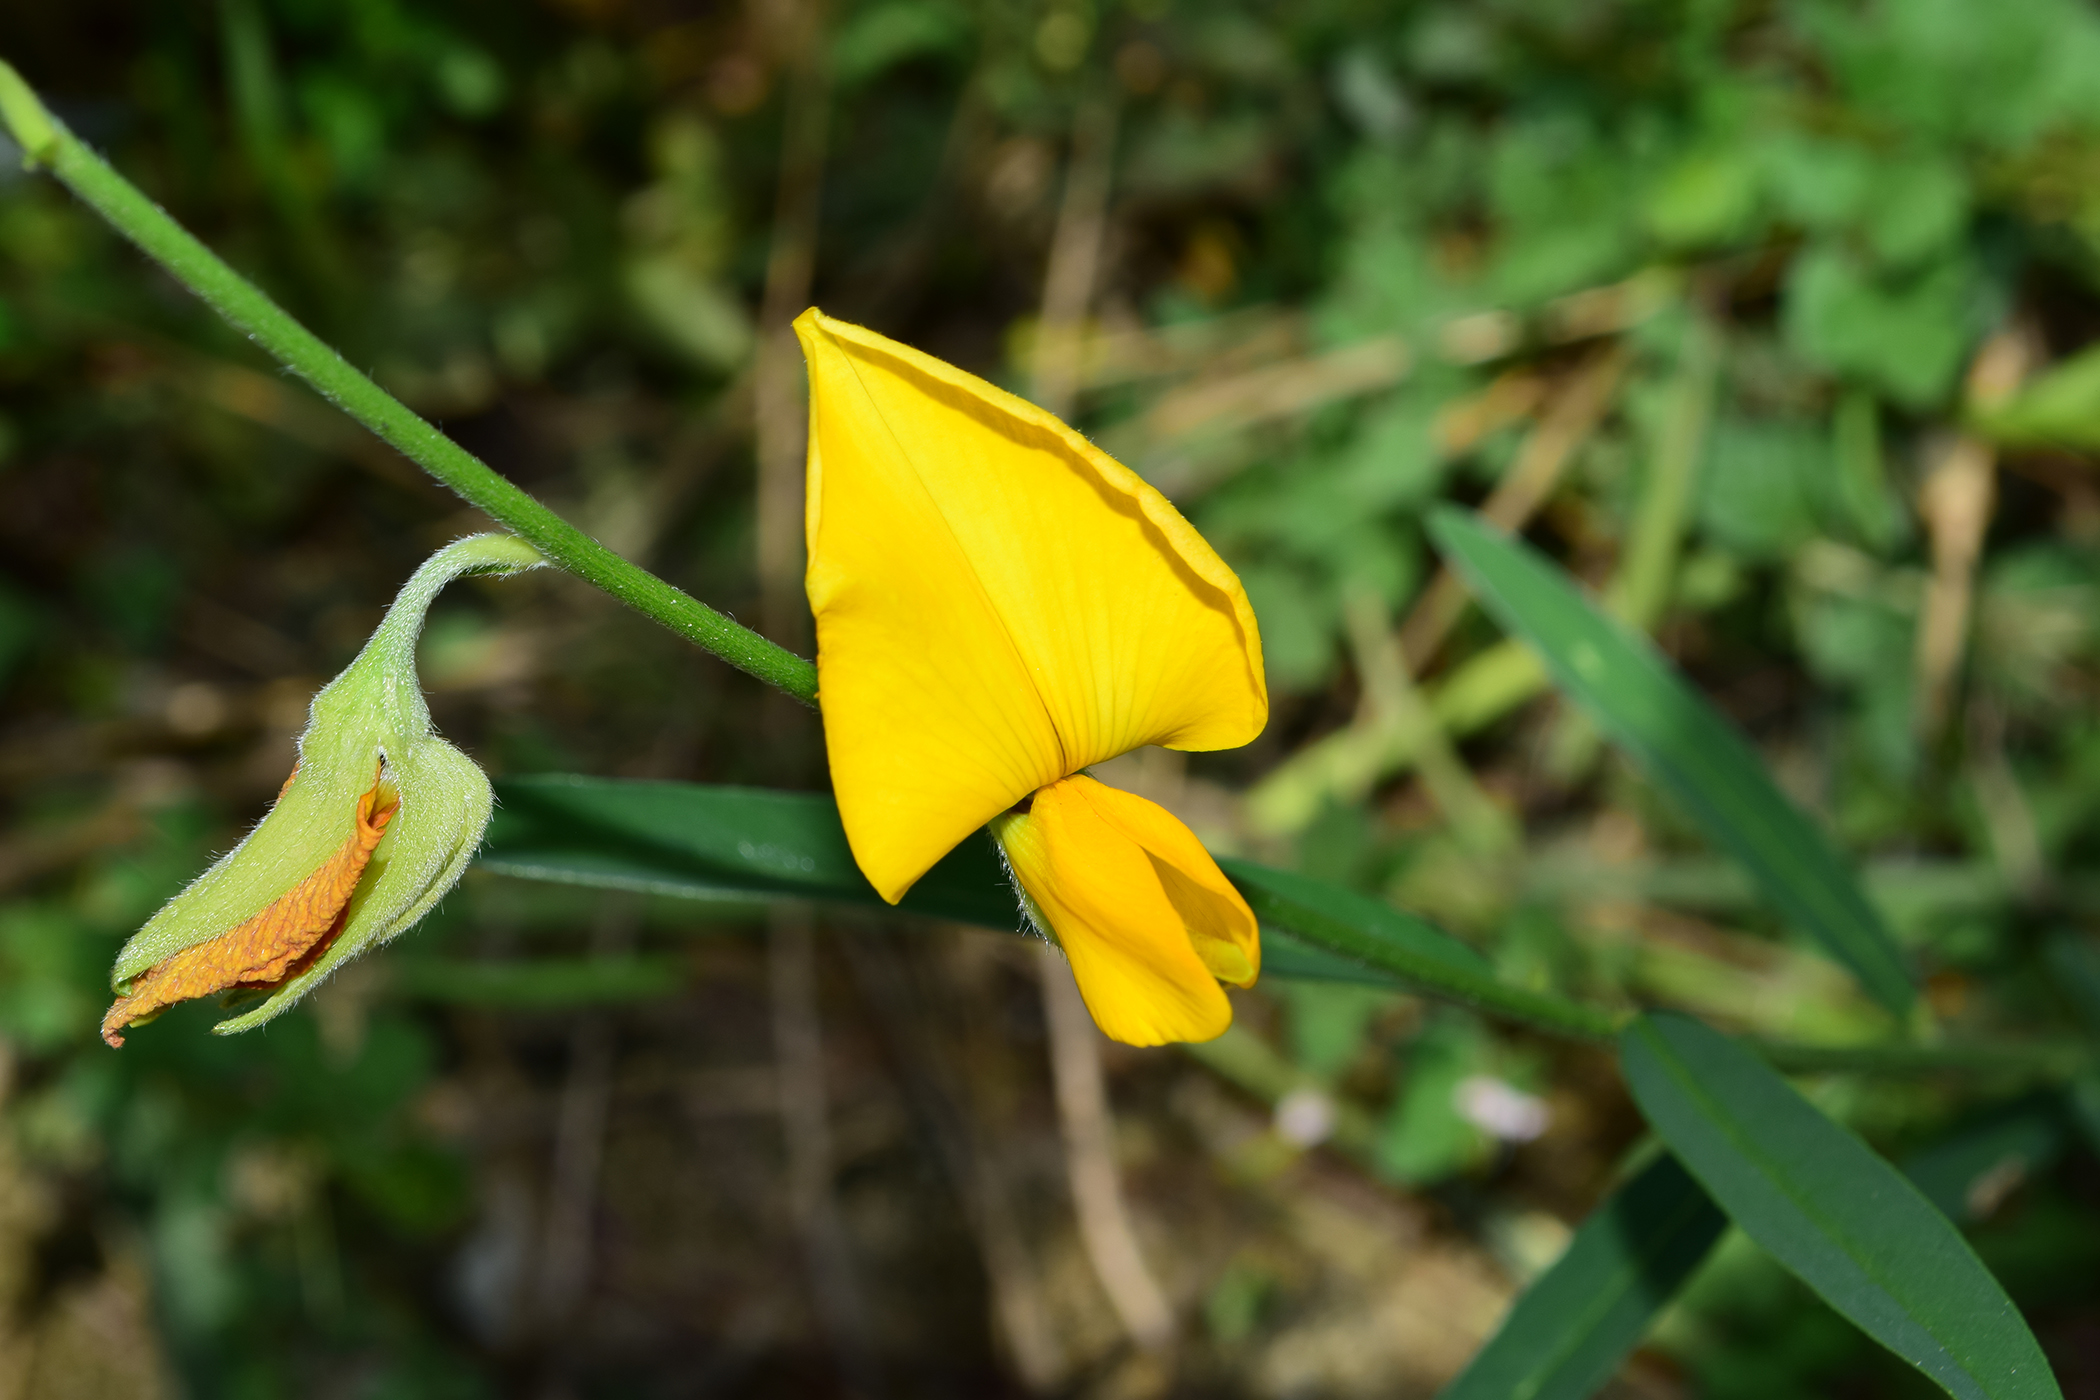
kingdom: Plantae
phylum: Tracheophyta
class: Magnoliopsida
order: Fabales
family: Fabaceae
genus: Crotalaria
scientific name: Crotalaria juncea
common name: Sunn hemp
